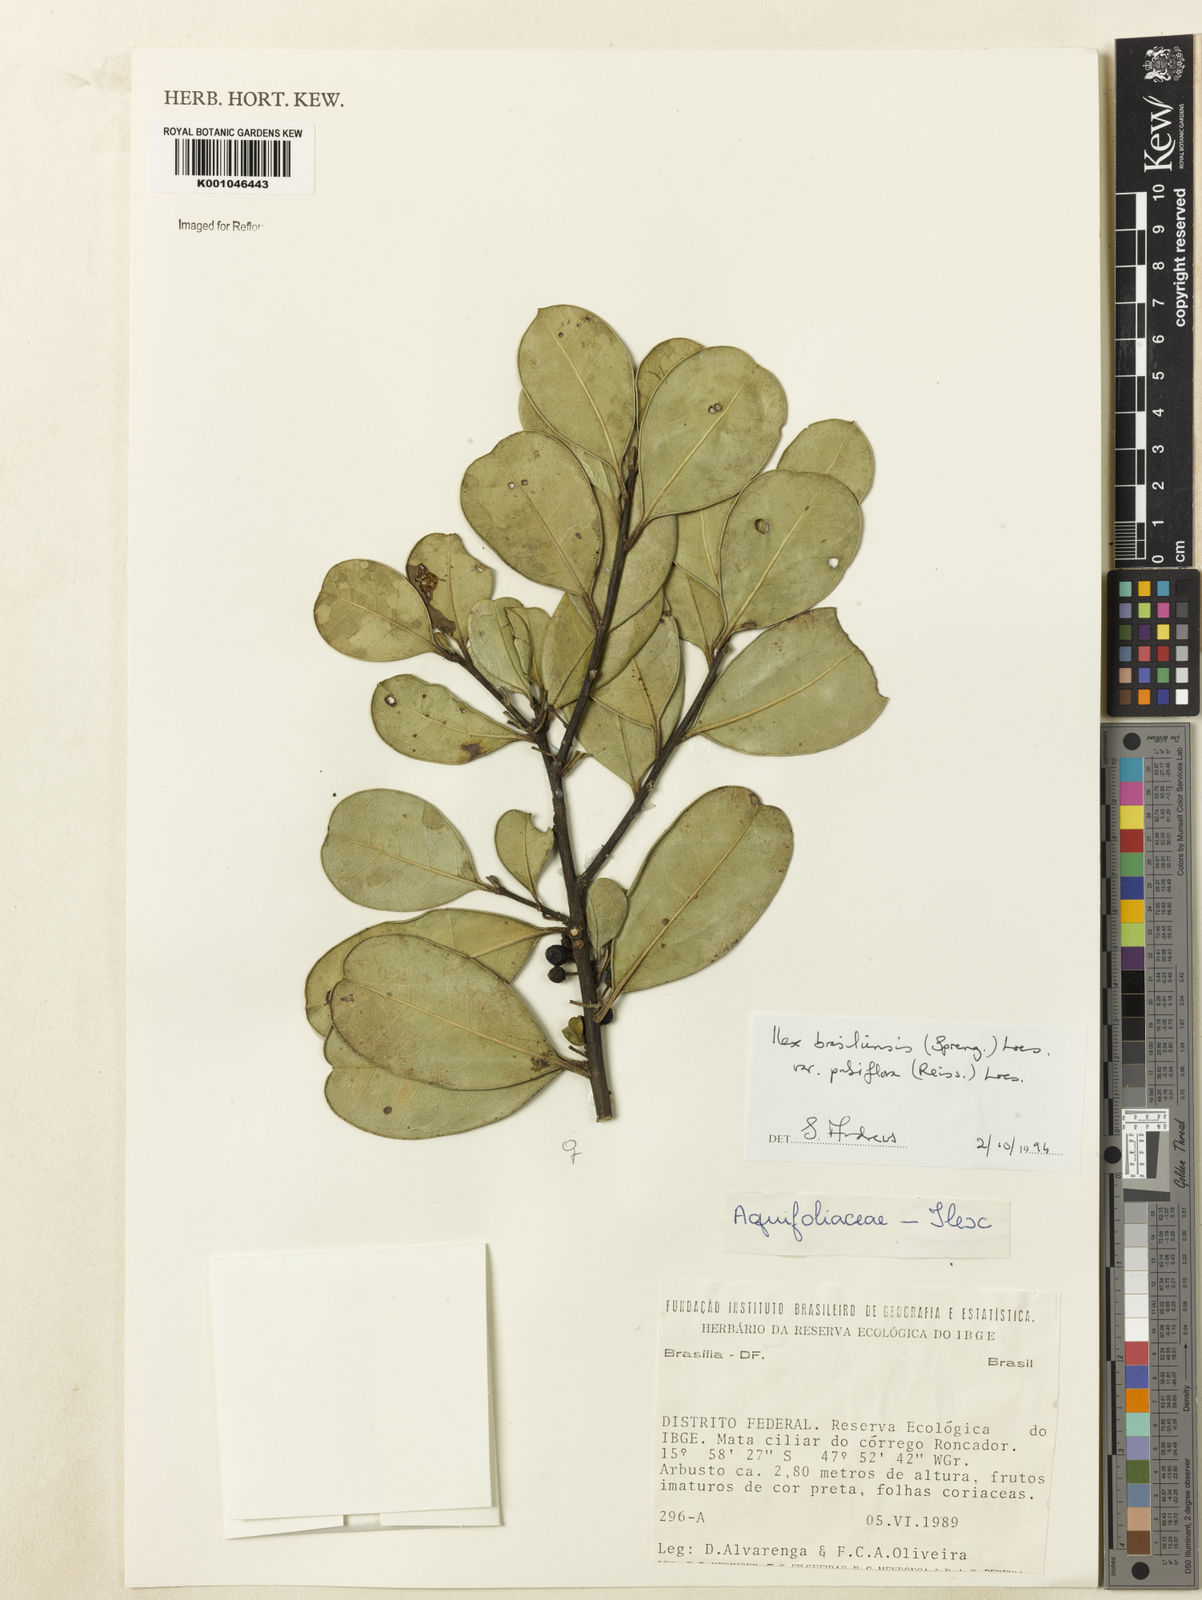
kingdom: Plantae
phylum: Tracheophyta
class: Magnoliopsida
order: Aquifoliales
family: Aquifoliaceae
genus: Ilex
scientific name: Ilex brasiliensis
